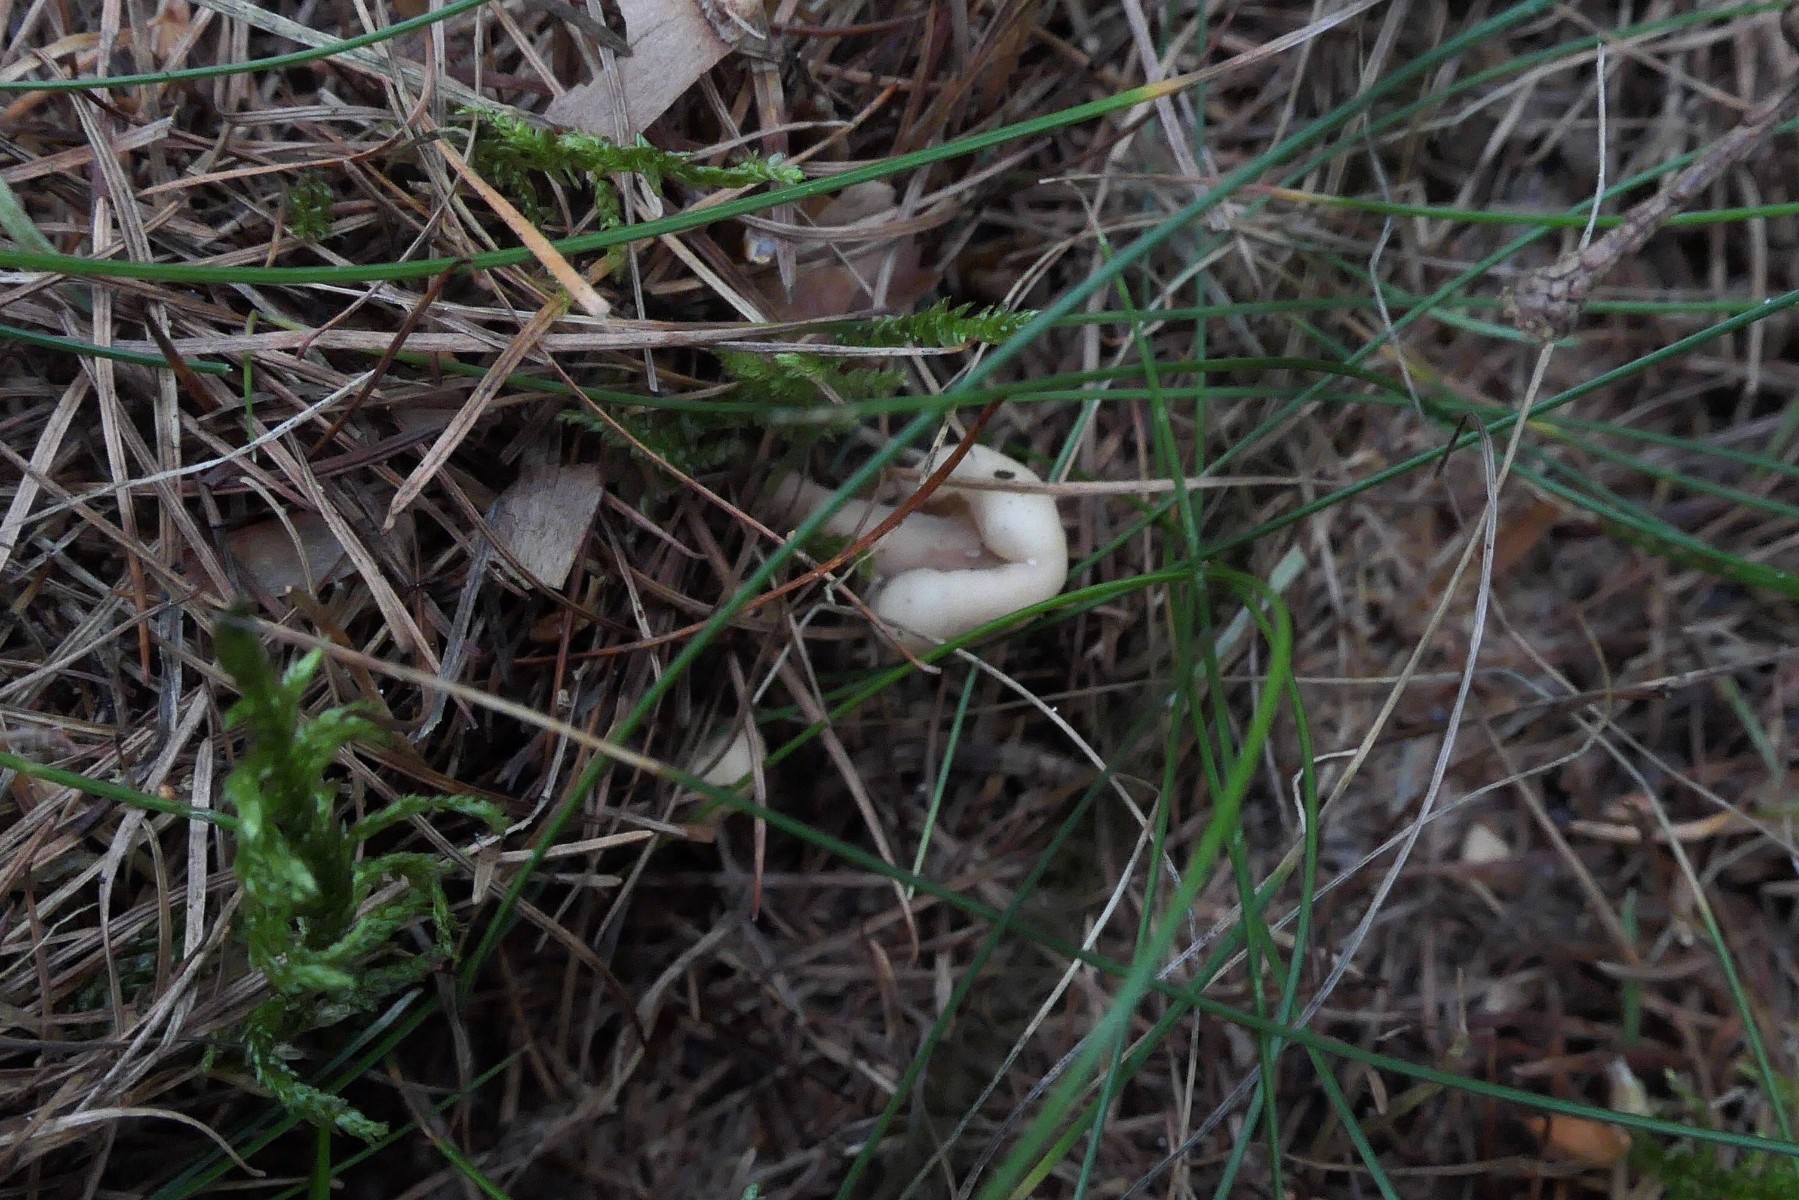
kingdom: Fungi
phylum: Ascomycota
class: Leotiomycetes
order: Rhytismatales
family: Cudoniaceae
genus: Cudonia
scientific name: Cudonia circinans
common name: hekserings-hjelmmorkel
